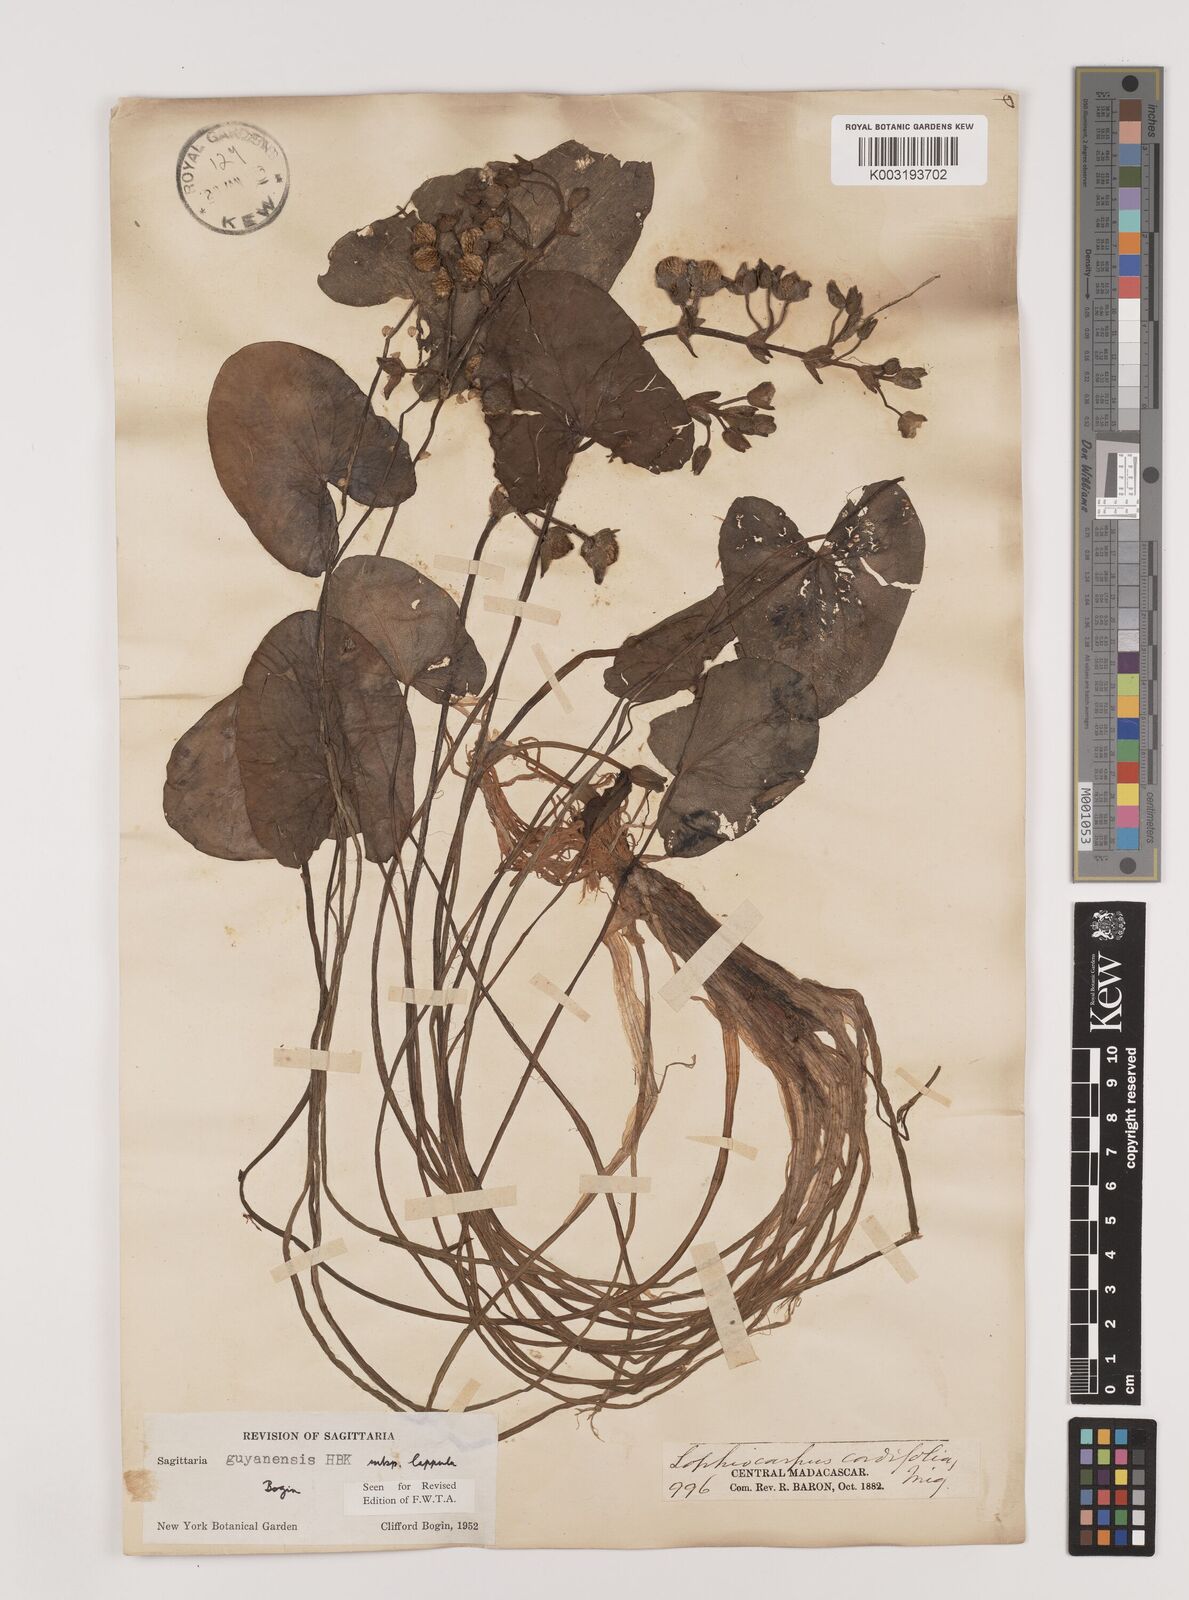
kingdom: Plantae
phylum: Tracheophyta
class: Liliopsida
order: Alismatales
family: Alismataceae
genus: Sagittaria
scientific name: Sagittaria guayanensis
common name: Guyanese arrowhead
